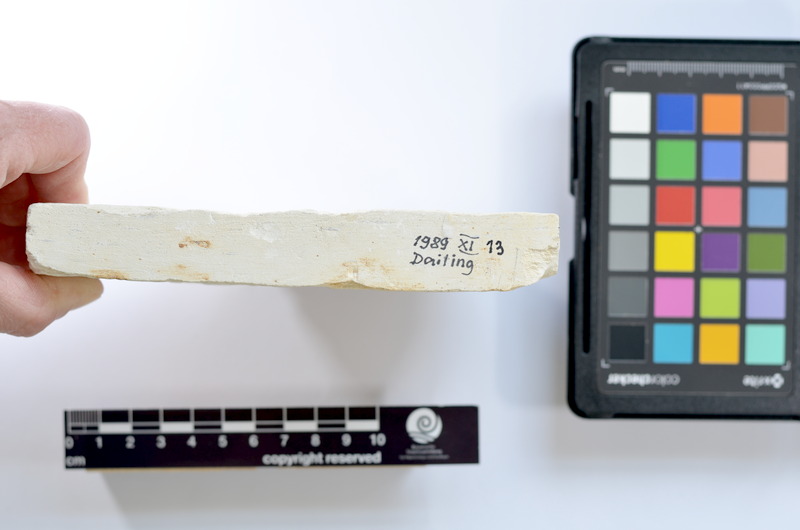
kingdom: Animalia
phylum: Chordata
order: Elopiformes
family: Anaethalionidae
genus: Anaethalion
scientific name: Anaethalion
